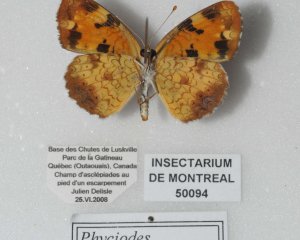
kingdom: Animalia
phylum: Arthropoda
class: Insecta
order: Lepidoptera
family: Nymphalidae
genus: Phyciodes
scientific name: Phyciodes tharos
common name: Northern Crescent
